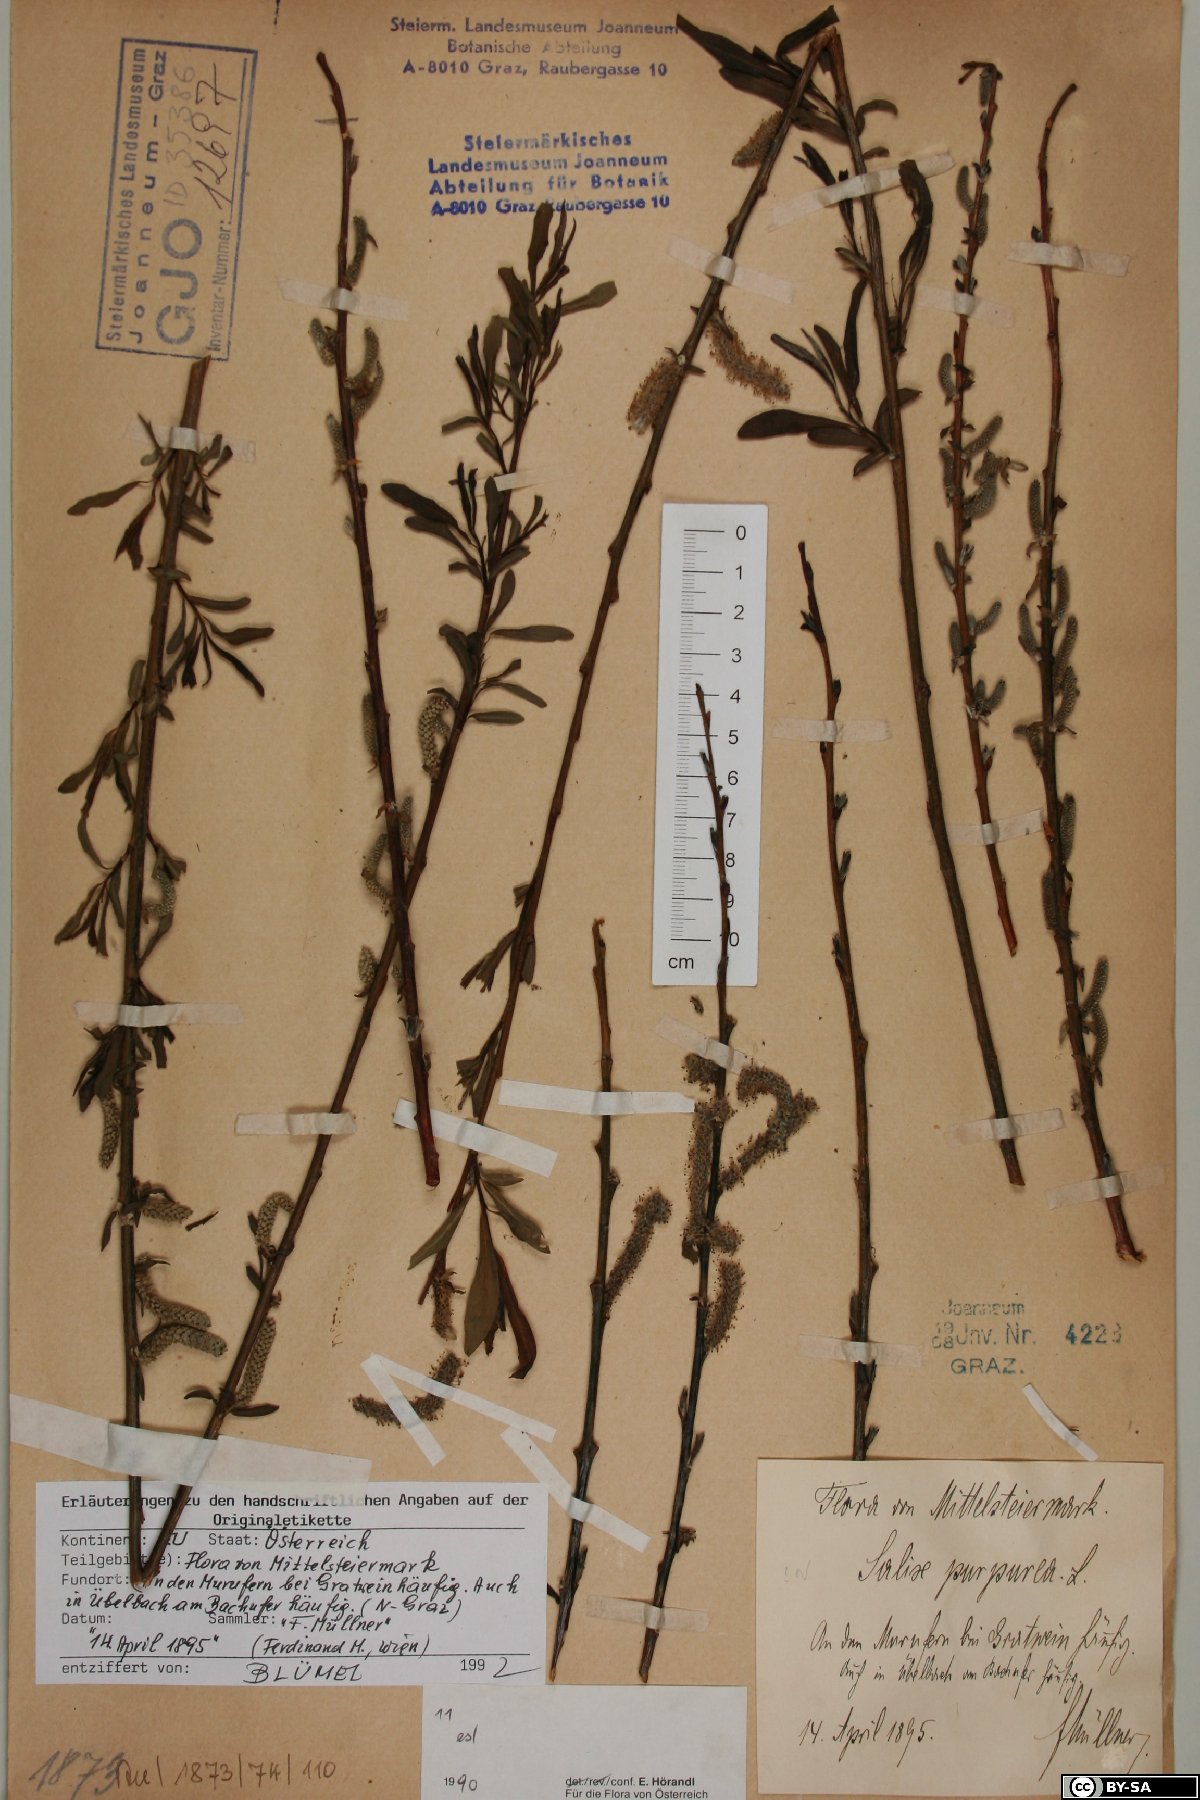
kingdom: Plantae
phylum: Tracheophyta
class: Magnoliopsida
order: Malpighiales
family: Salicaceae
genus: Salix
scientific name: Salix purpurea
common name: Purple willow
